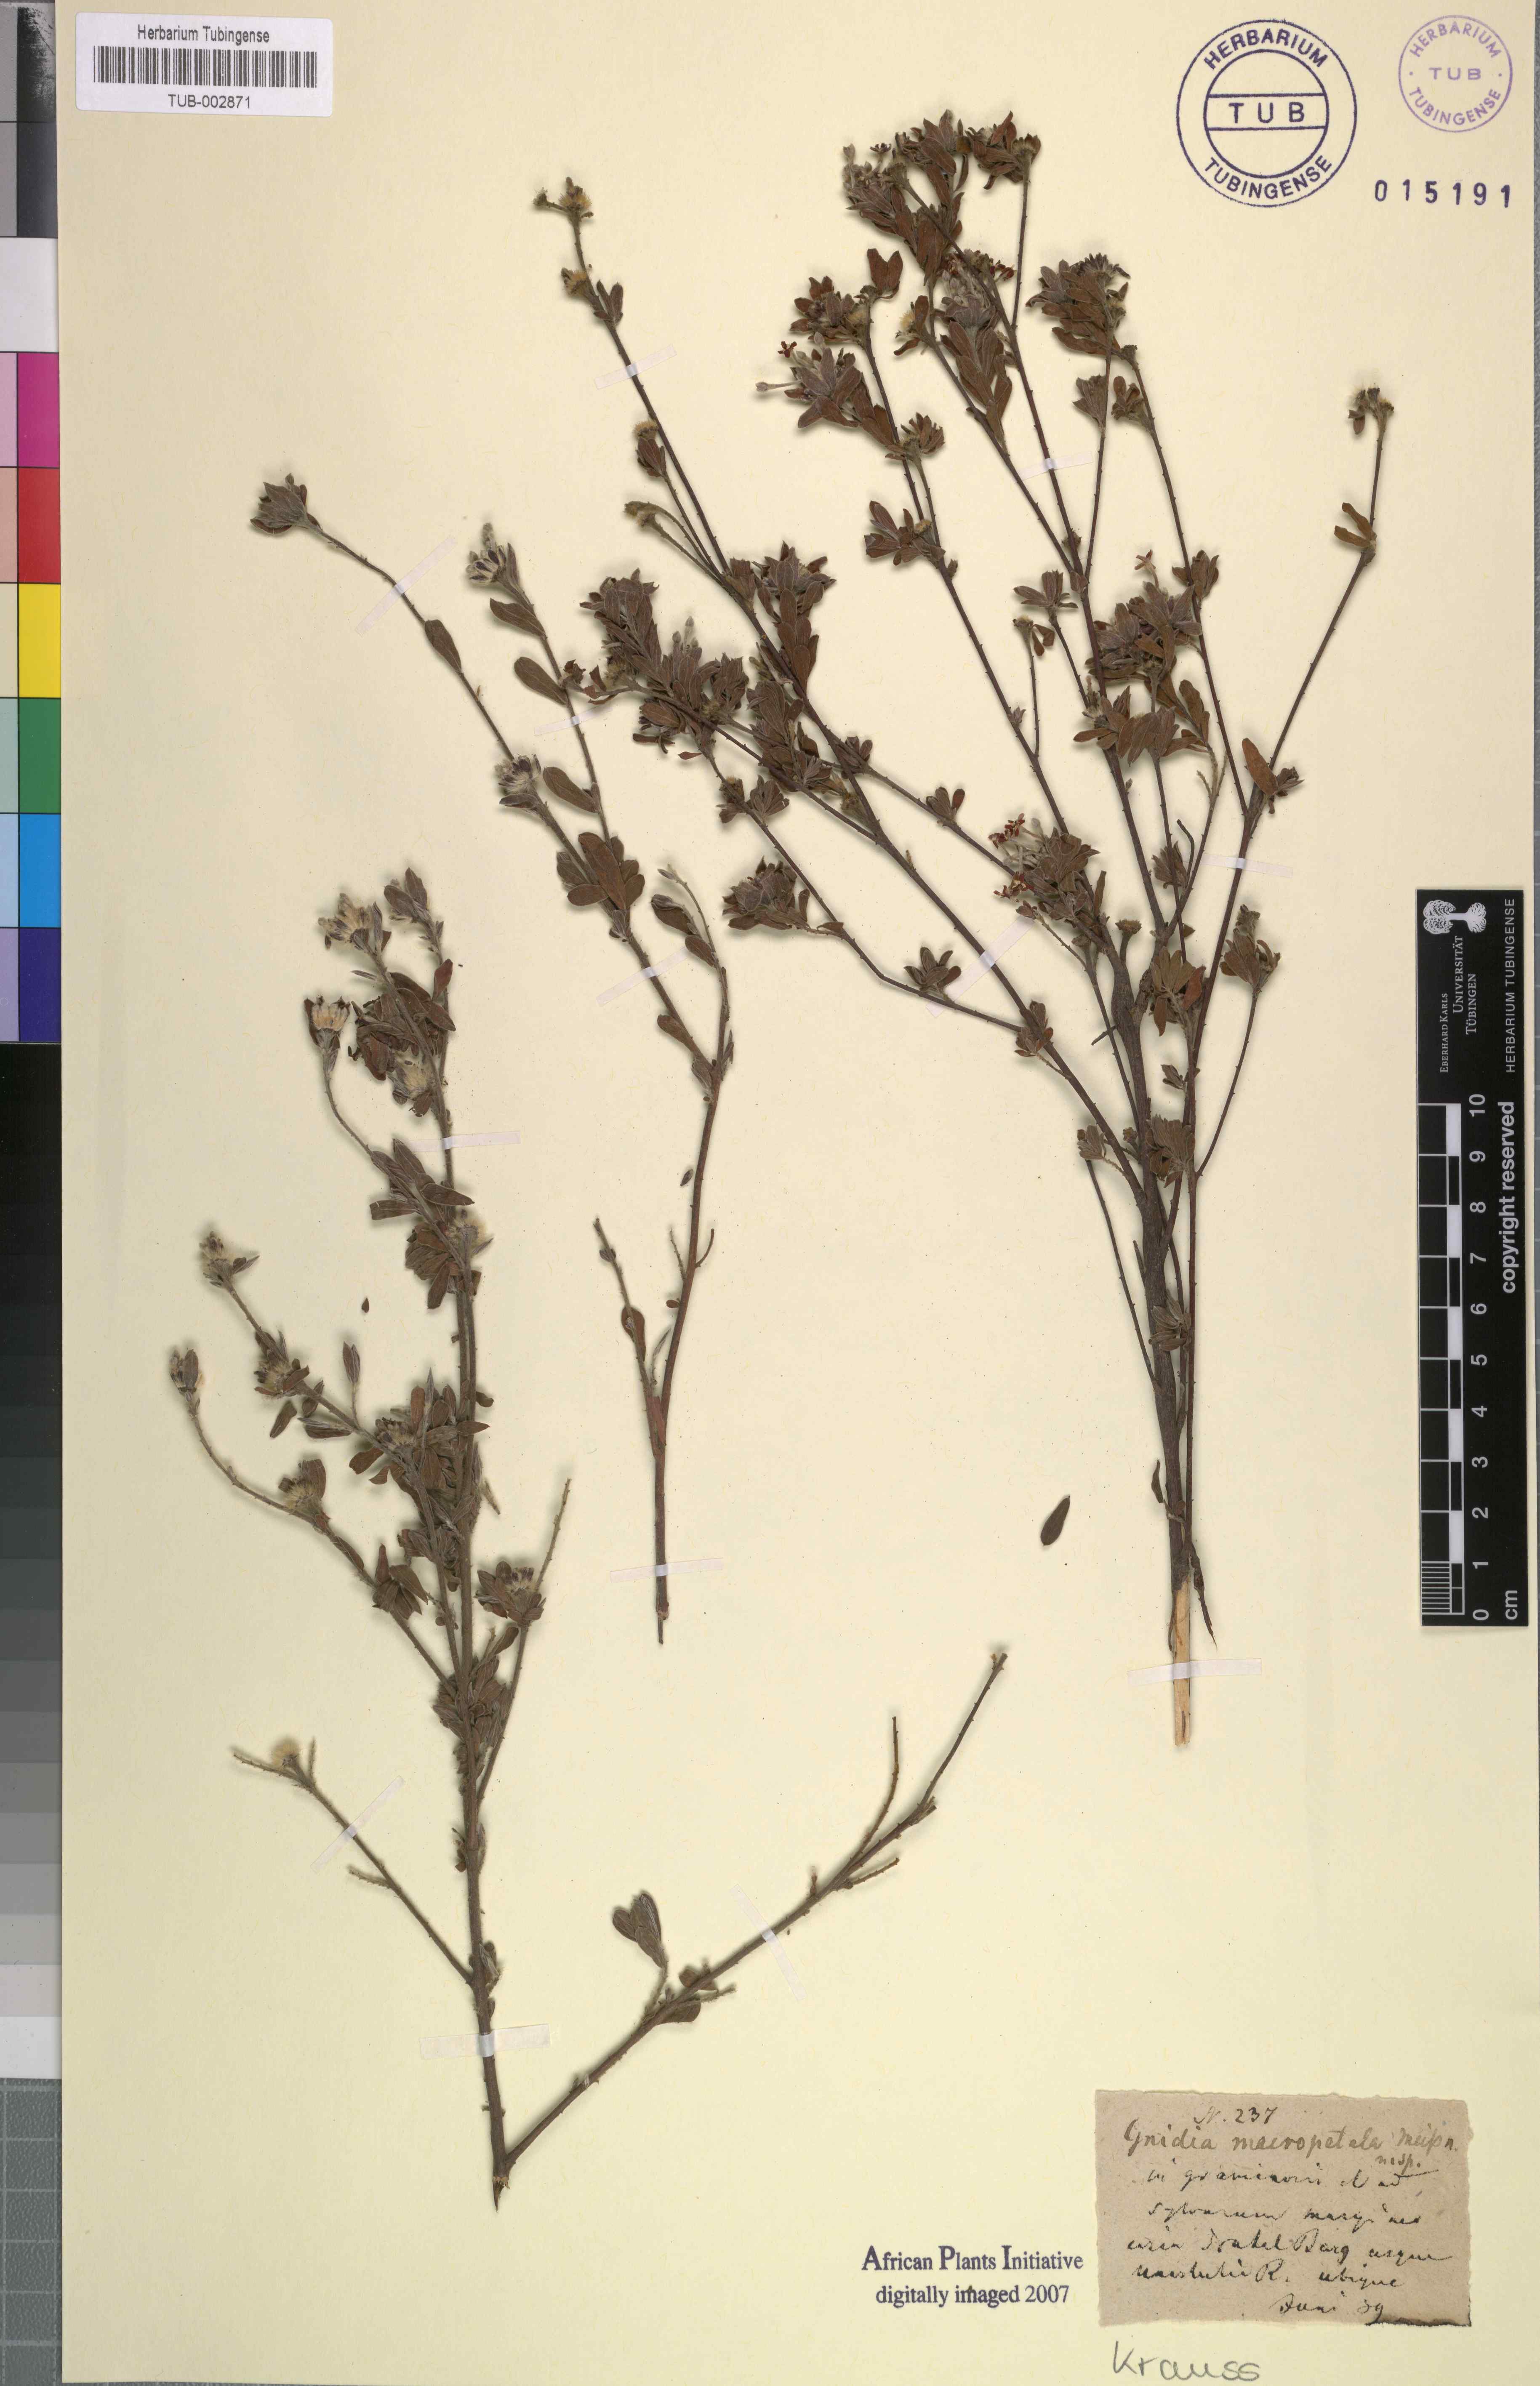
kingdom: Plantae
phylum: Tracheophyta
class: Magnoliopsida
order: Malvales
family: Thymelaeaceae
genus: Gnidia
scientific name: Gnidia macropetala
